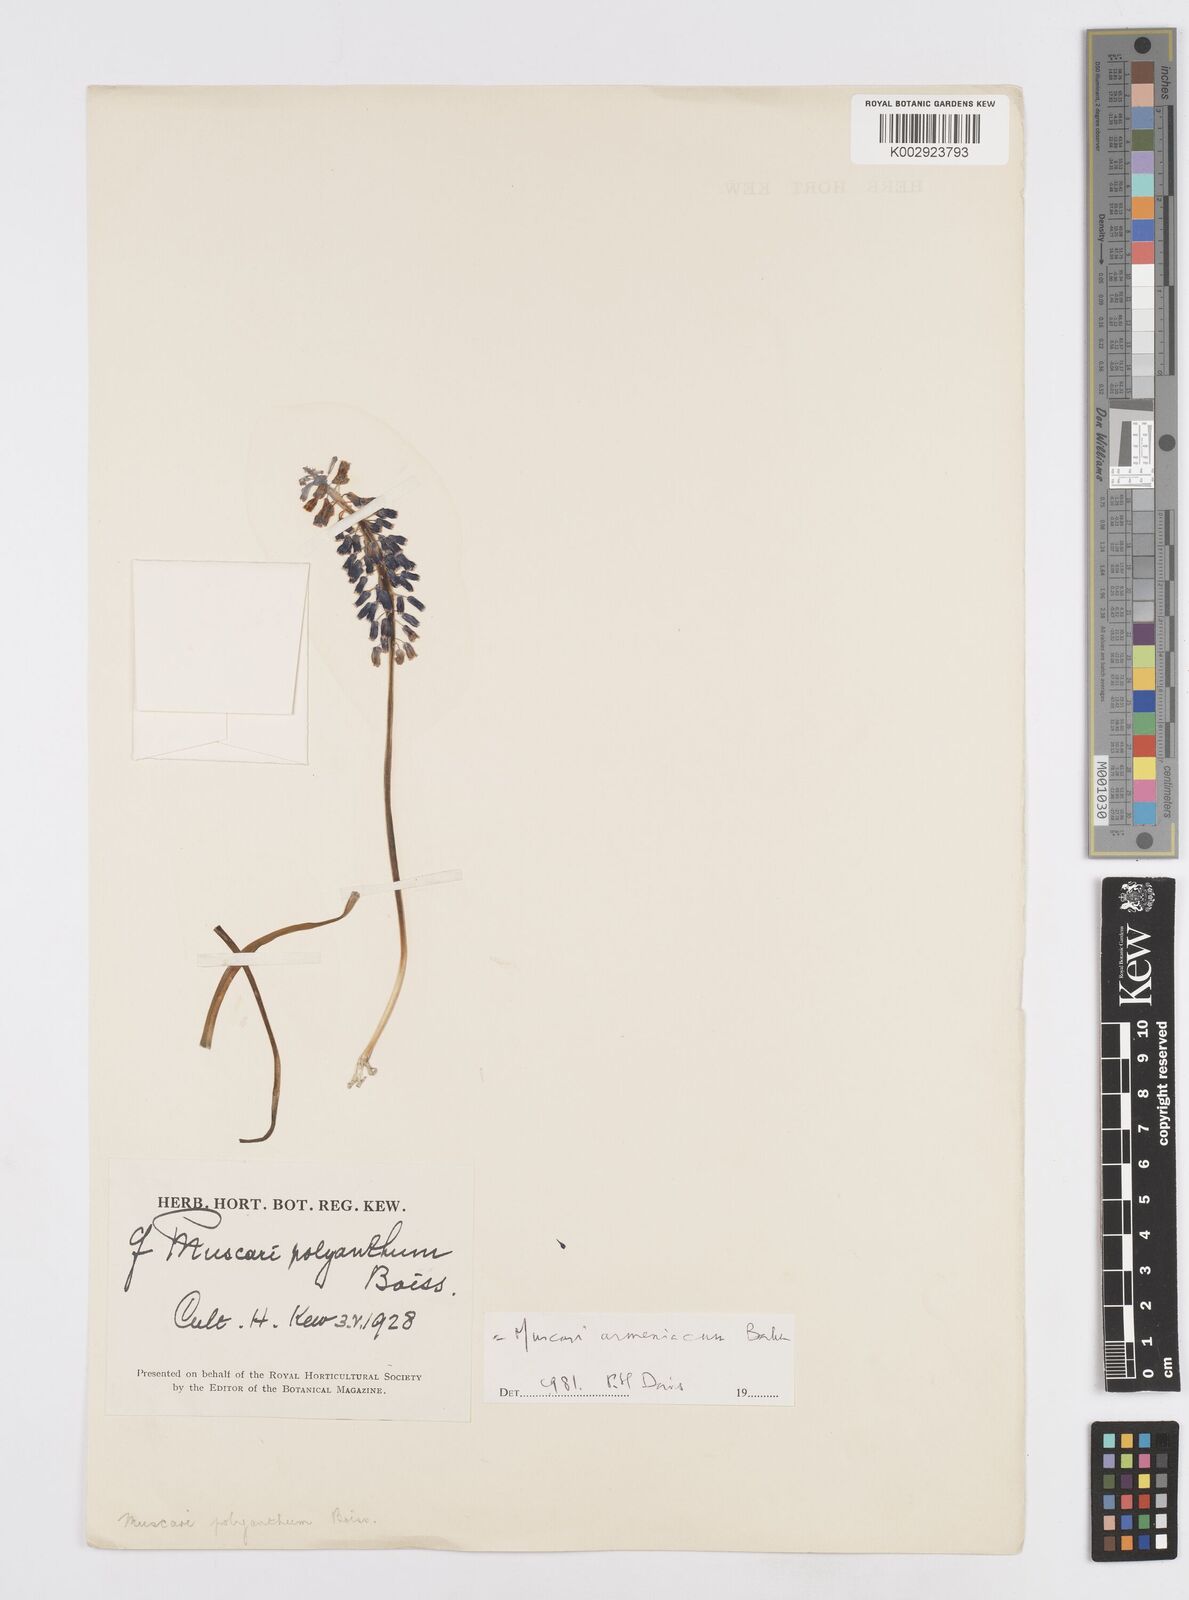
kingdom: Plantae
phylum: Tracheophyta
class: Liliopsida
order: Asparagales
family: Asparagaceae
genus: Muscari
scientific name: Muscari armeniacum
